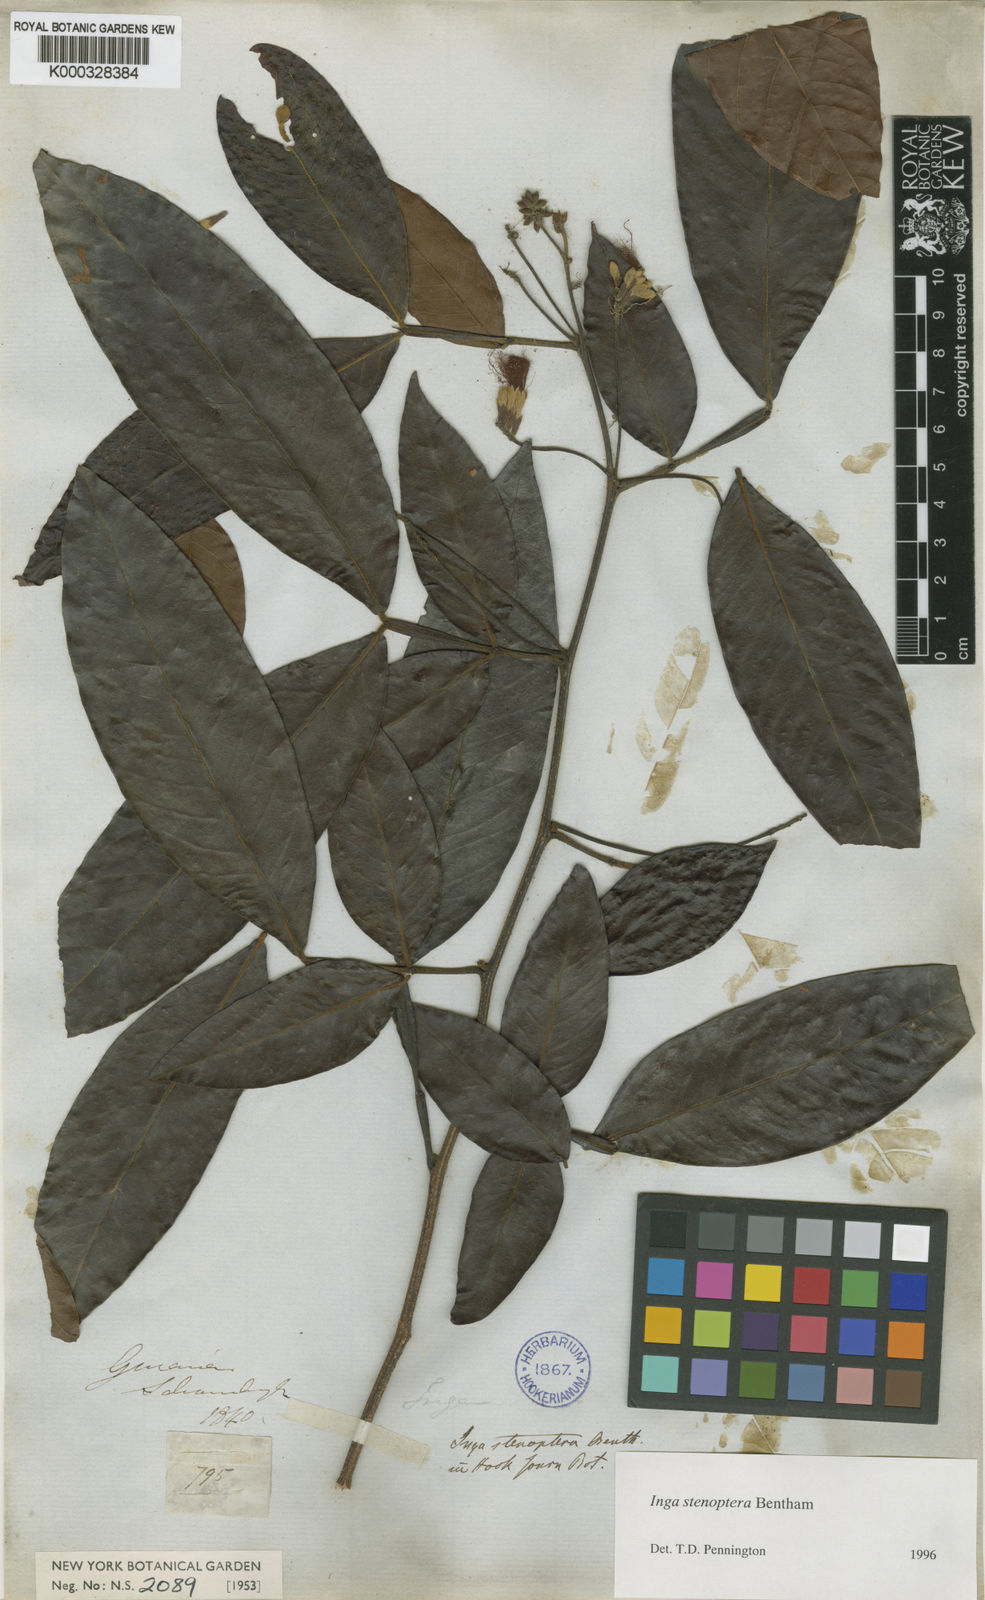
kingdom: Plantae
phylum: Tracheophyta
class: Magnoliopsida
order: Fabales
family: Fabaceae
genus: Inga
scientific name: Inga stenoptera
